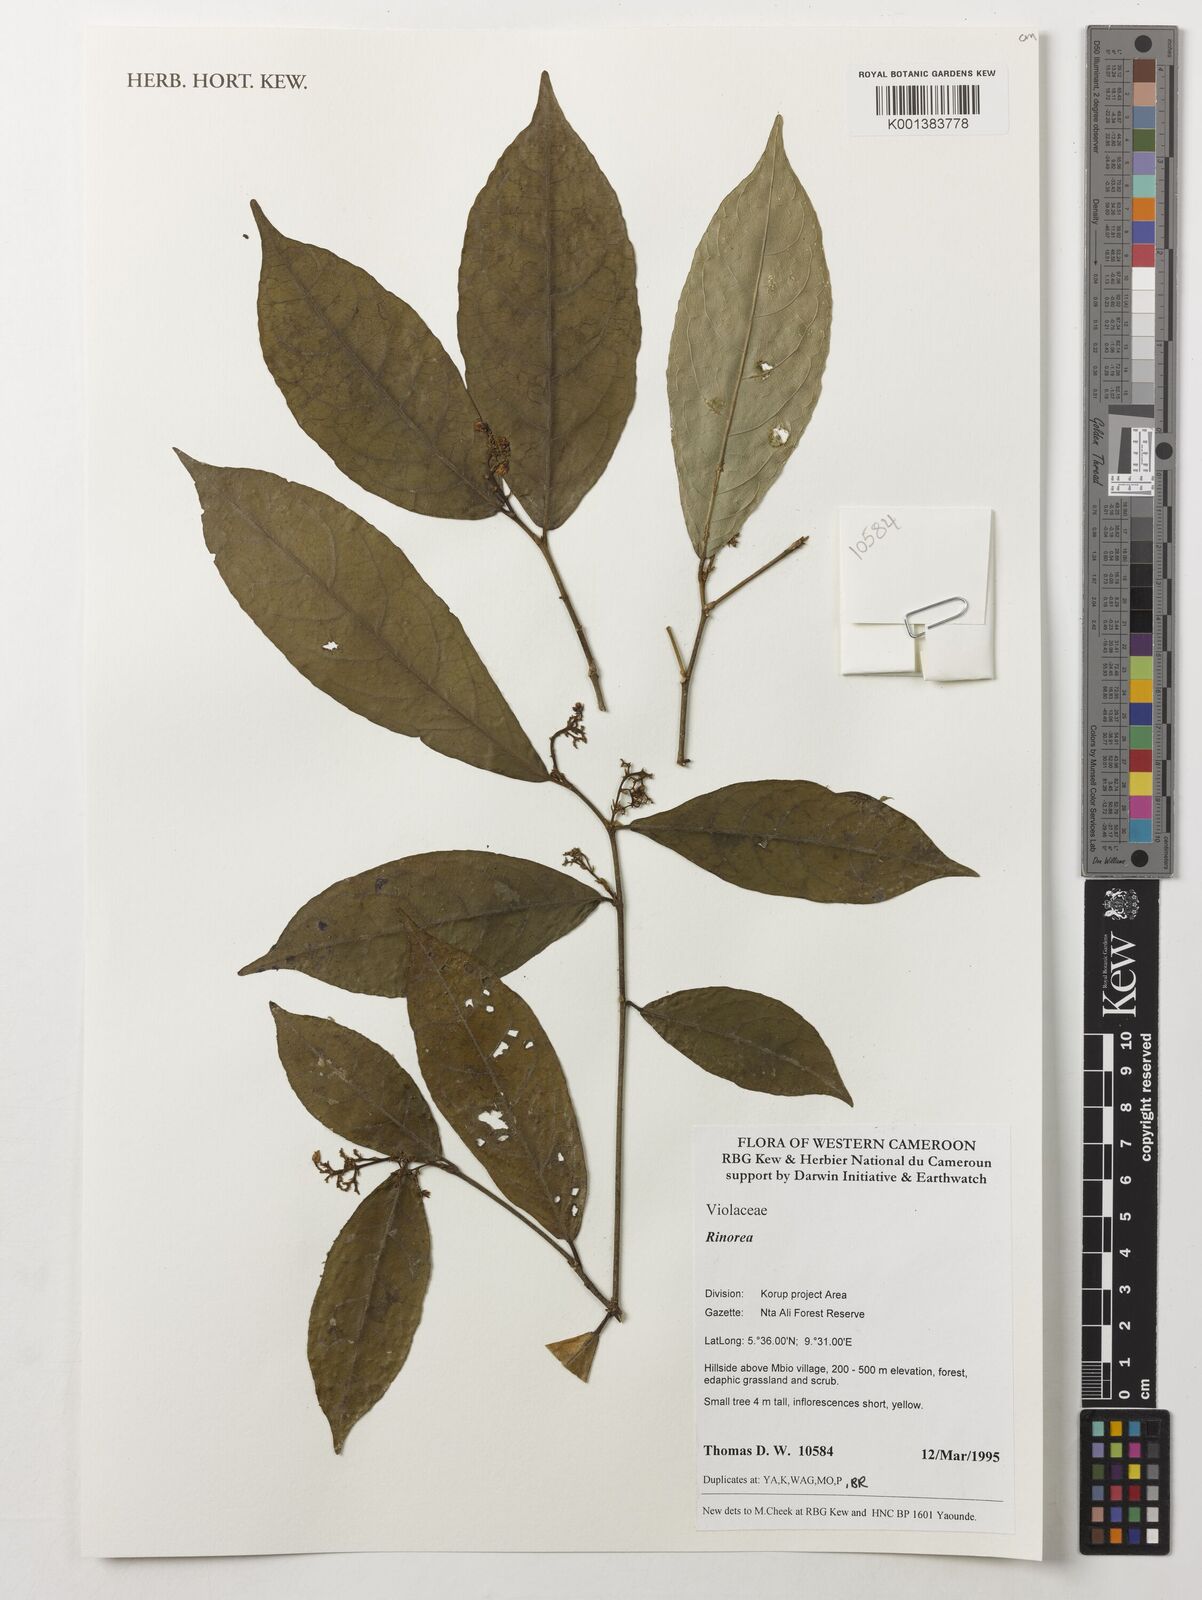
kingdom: Plantae
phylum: Tracheophyta
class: Magnoliopsida
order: Malpighiales
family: Violaceae
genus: Rinorea
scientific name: Rinorea
